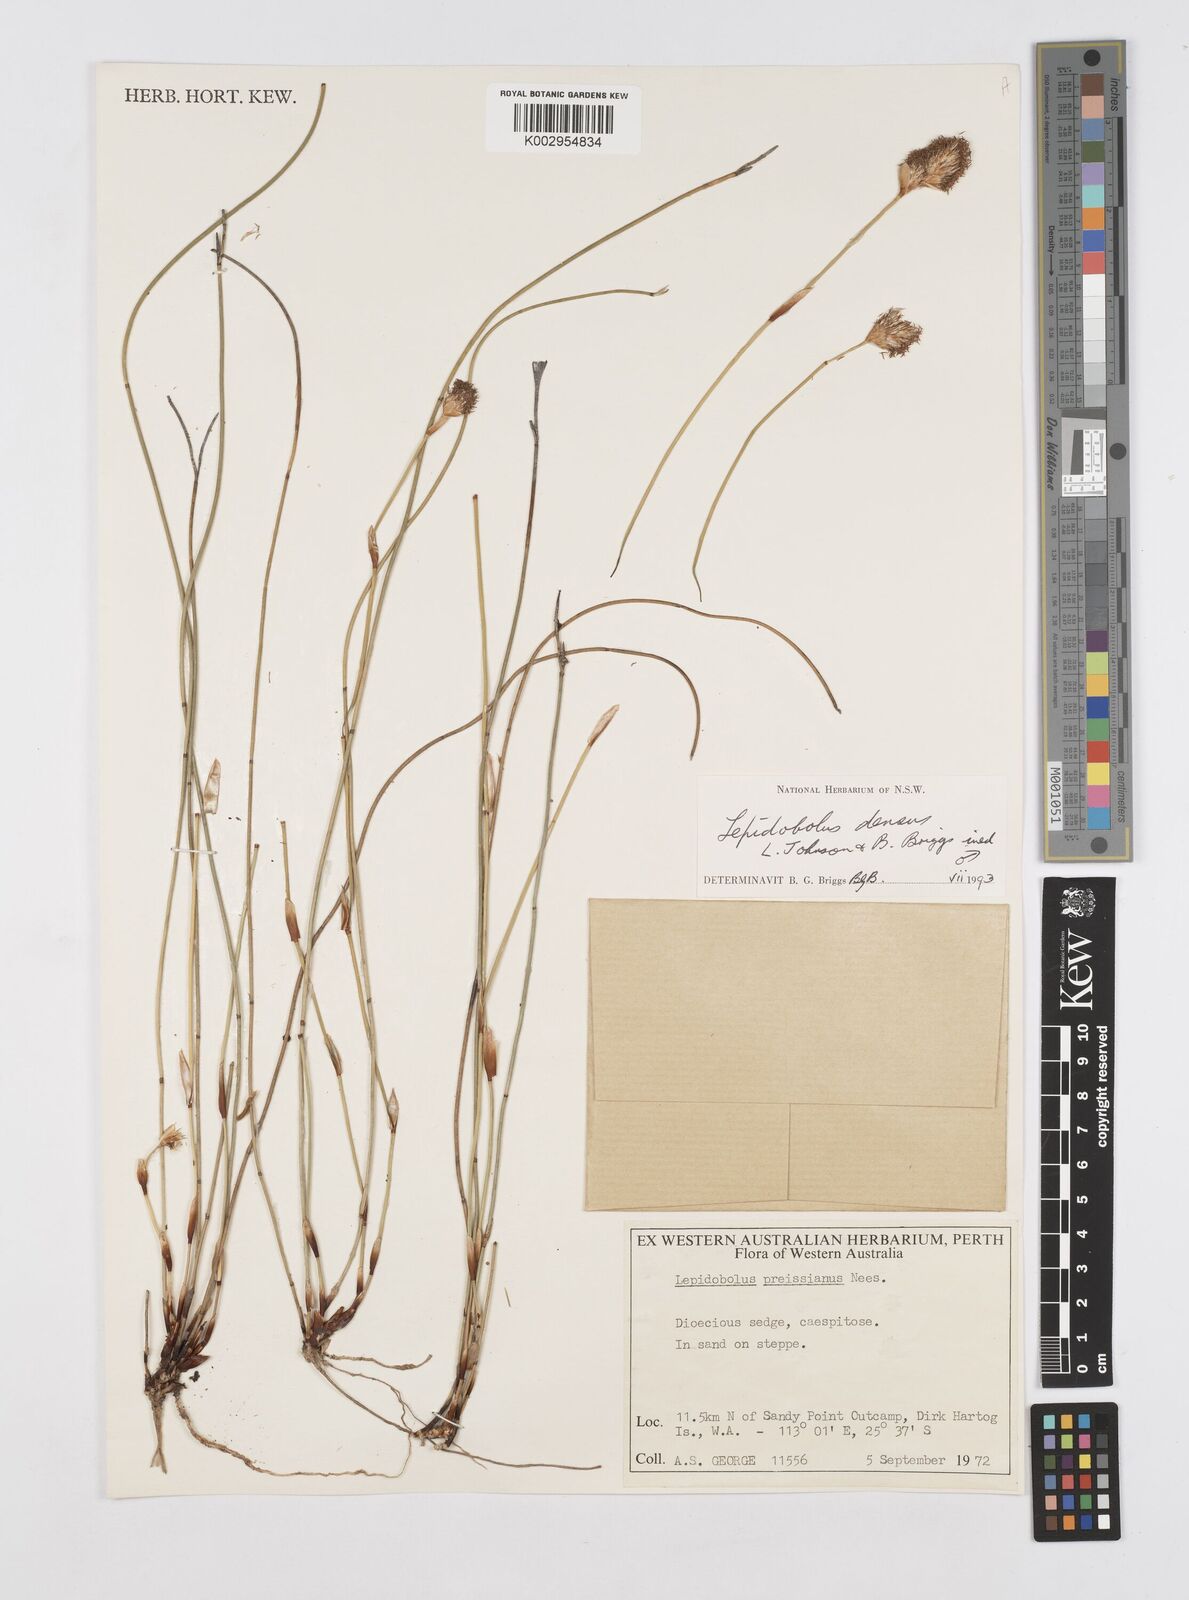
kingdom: Plantae
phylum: Tracheophyta
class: Liliopsida
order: Poales
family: Restionaceae
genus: Lepidobolus
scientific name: Lepidobolus densus
